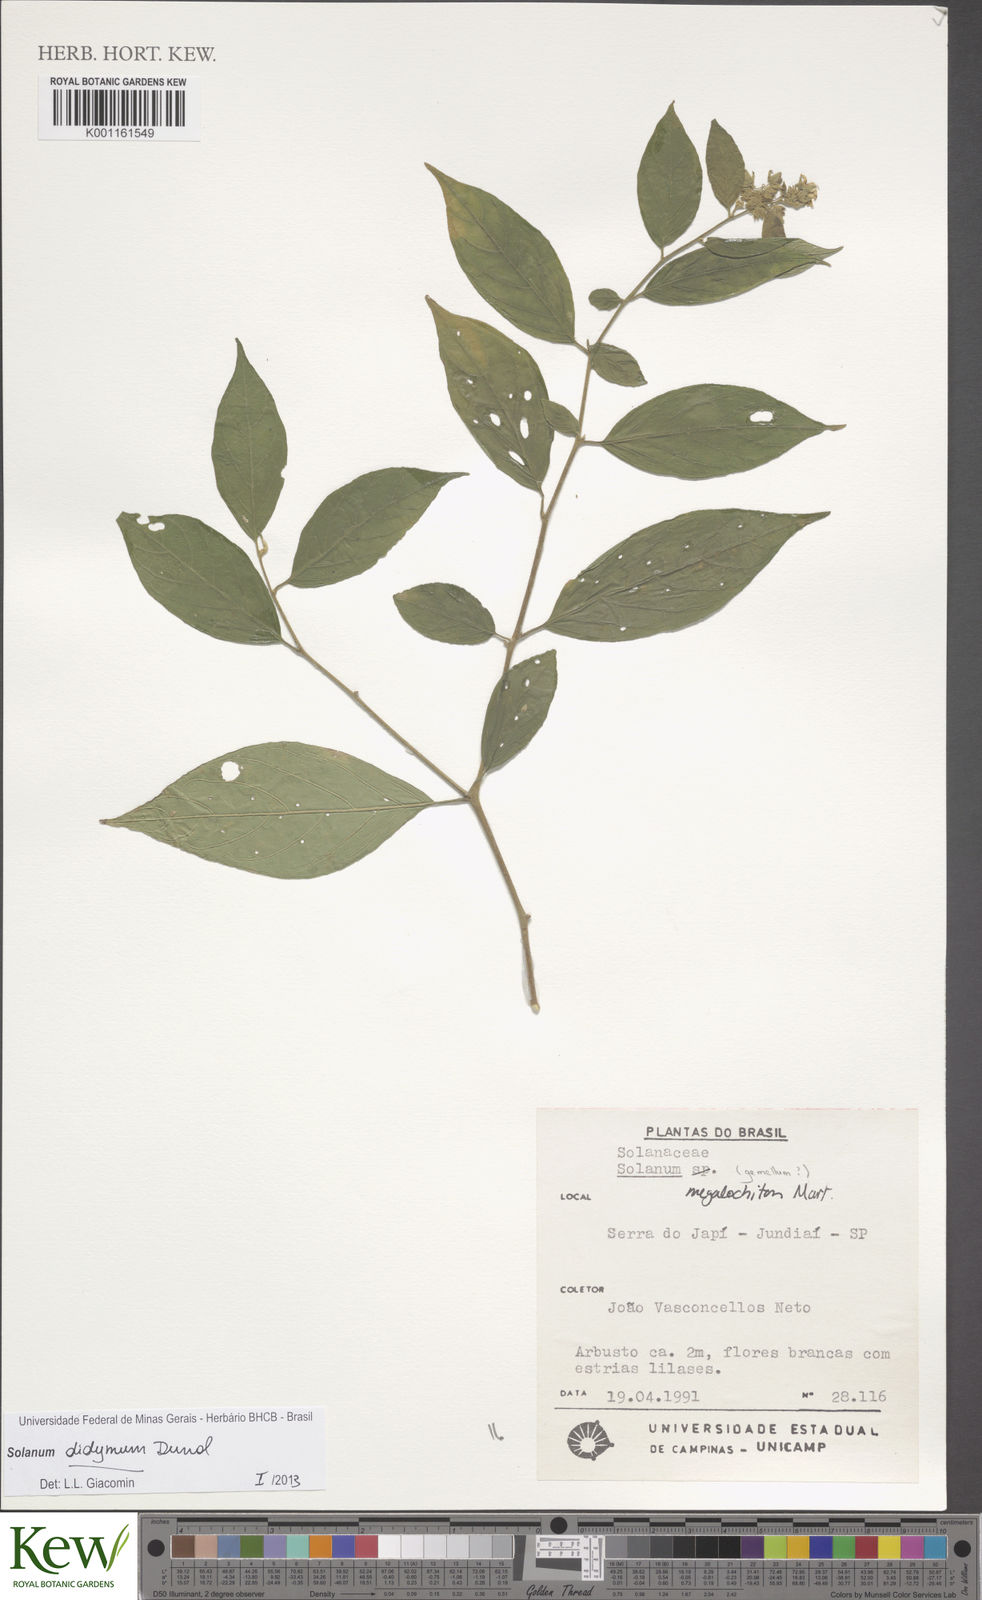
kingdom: Plantae
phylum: Tracheophyta
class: Magnoliopsida
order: Solanales
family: Solanaceae
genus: Solanum
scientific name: Solanum didymum
